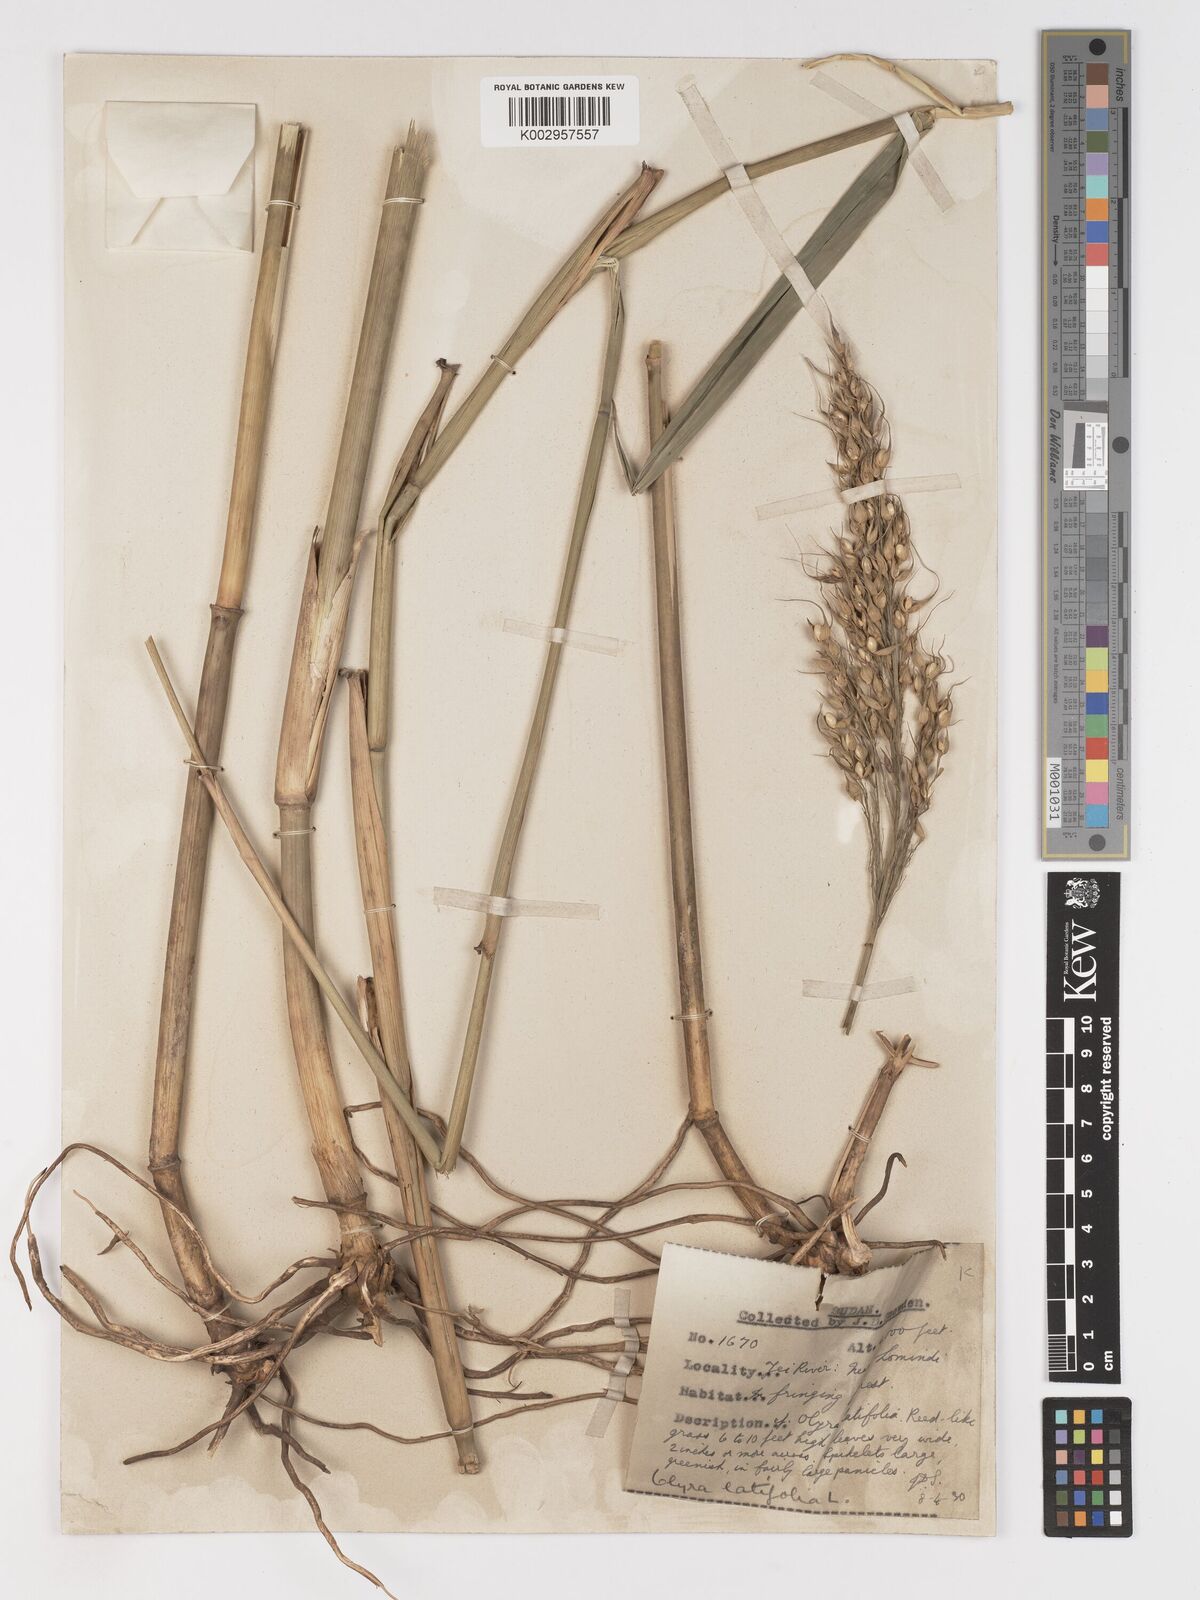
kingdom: Plantae
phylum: Tracheophyta
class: Liliopsida
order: Poales
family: Poaceae
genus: Olyra
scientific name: Olyra latifolia
